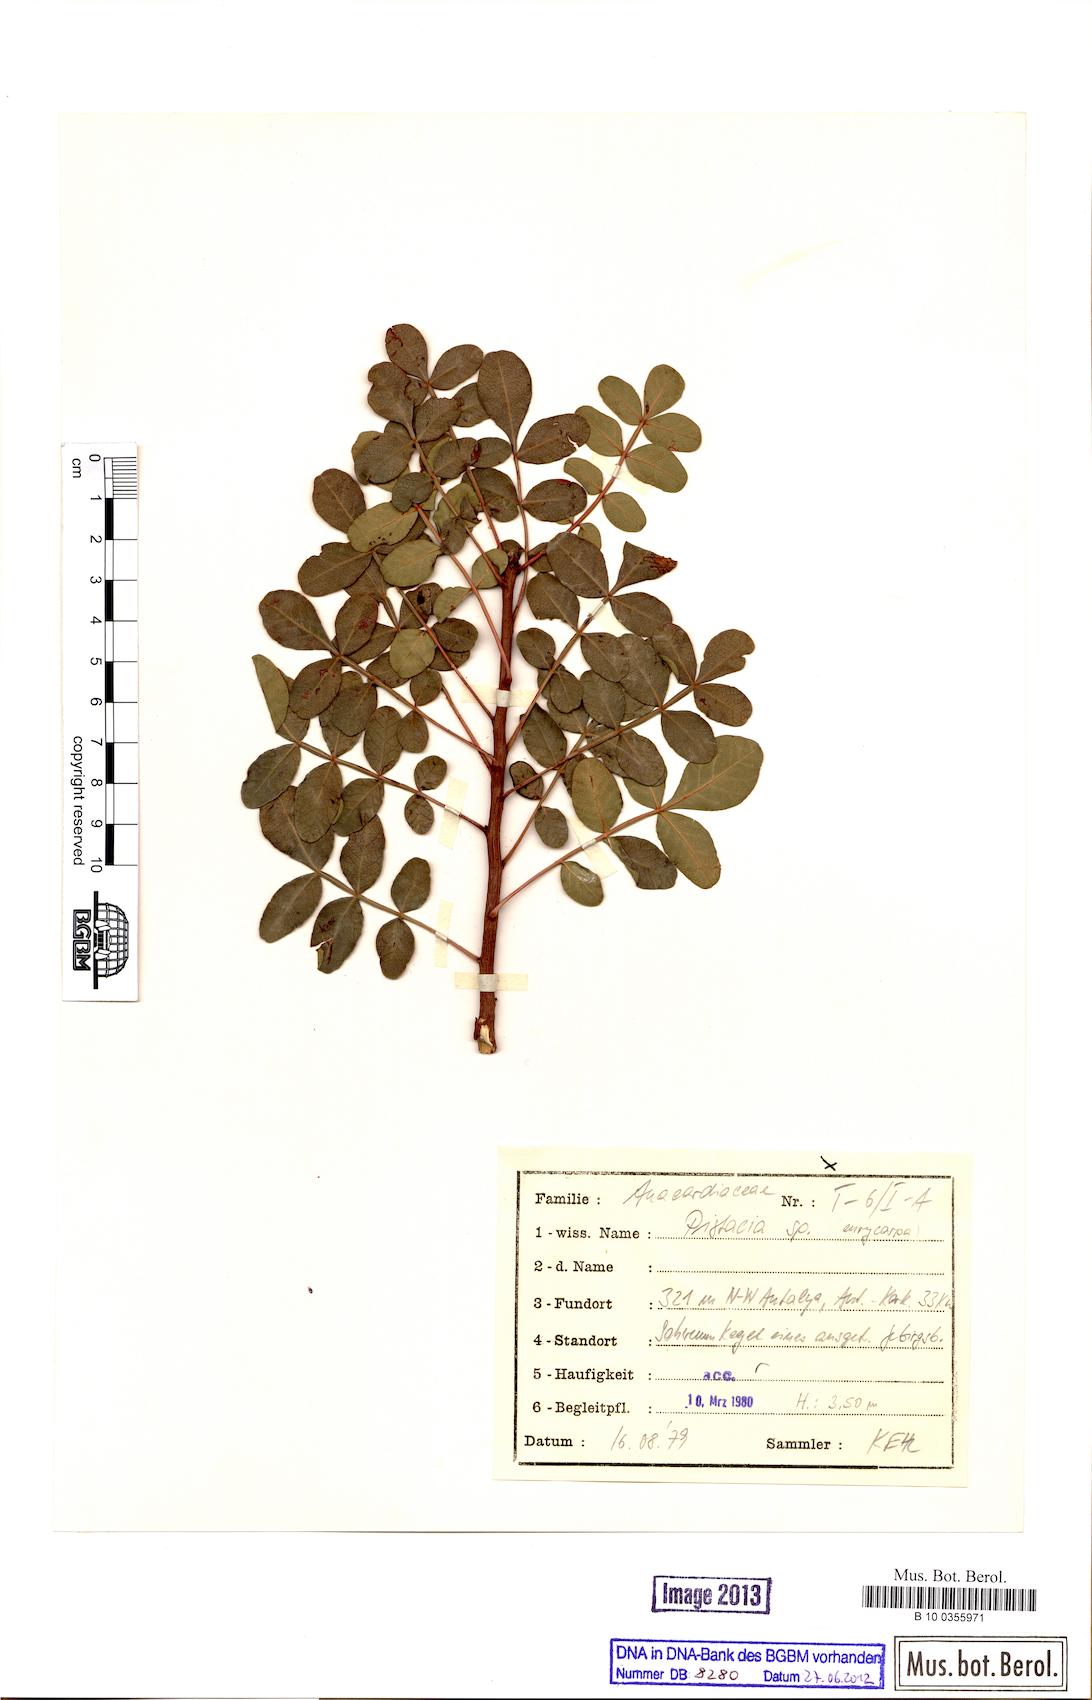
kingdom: Plantae
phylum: Tracheophyta
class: Magnoliopsida
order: Sapindales
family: Anacardiaceae
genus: Pistacia
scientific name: Pistacia eurycarpa
